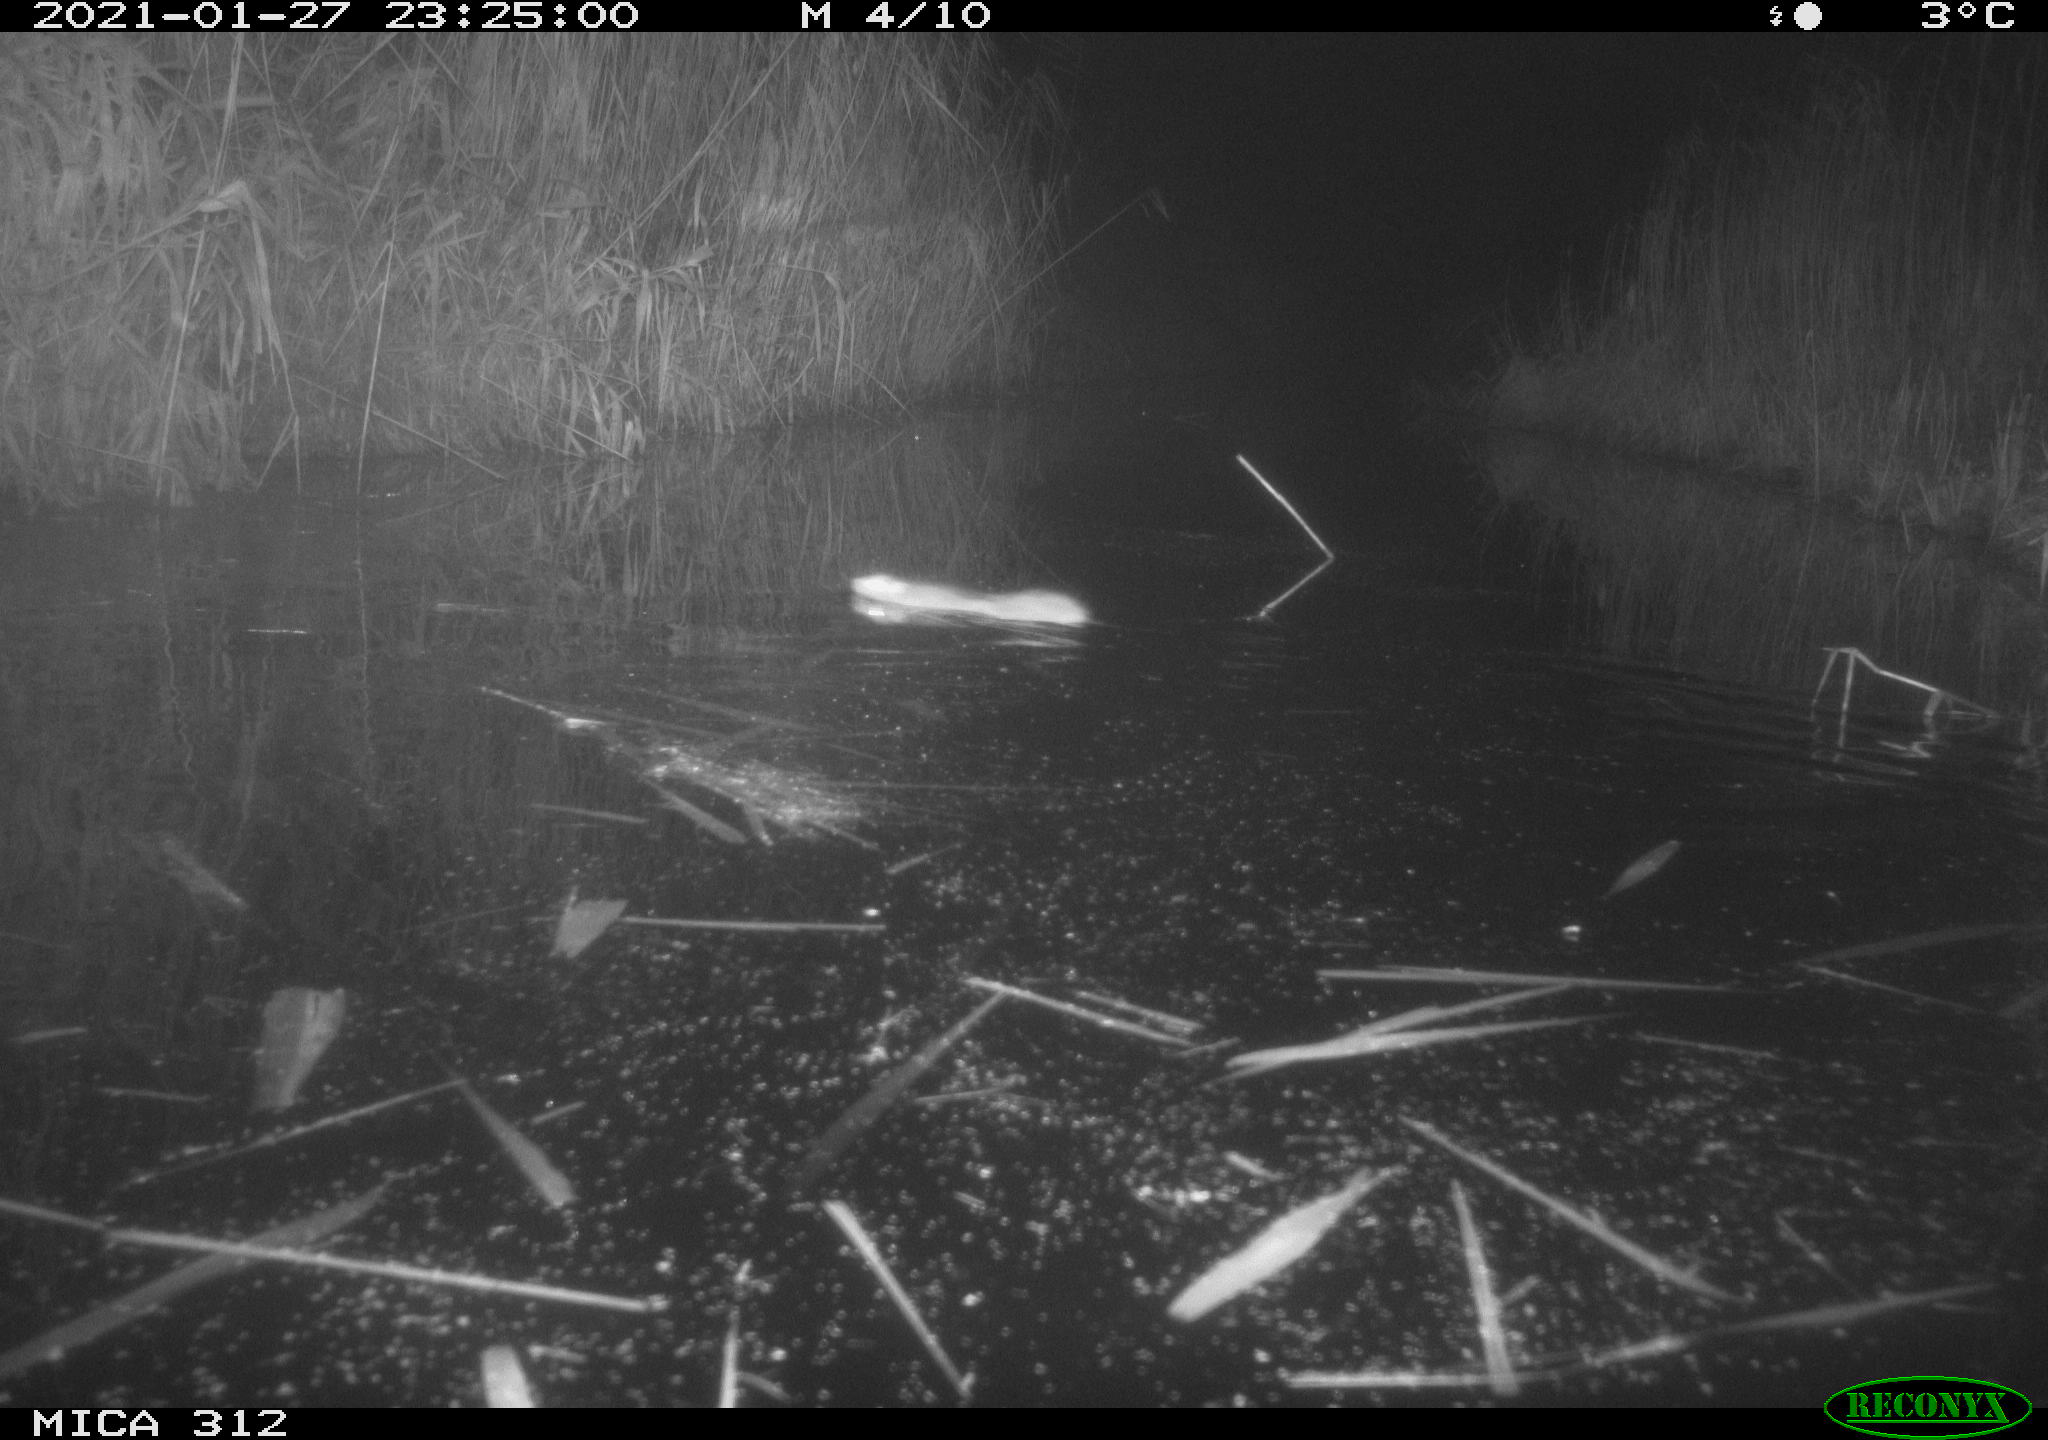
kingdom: Animalia
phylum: Chordata
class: Mammalia
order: Rodentia
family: Muridae
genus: Rattus
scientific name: Rattus norvegicus
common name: Brown rat
